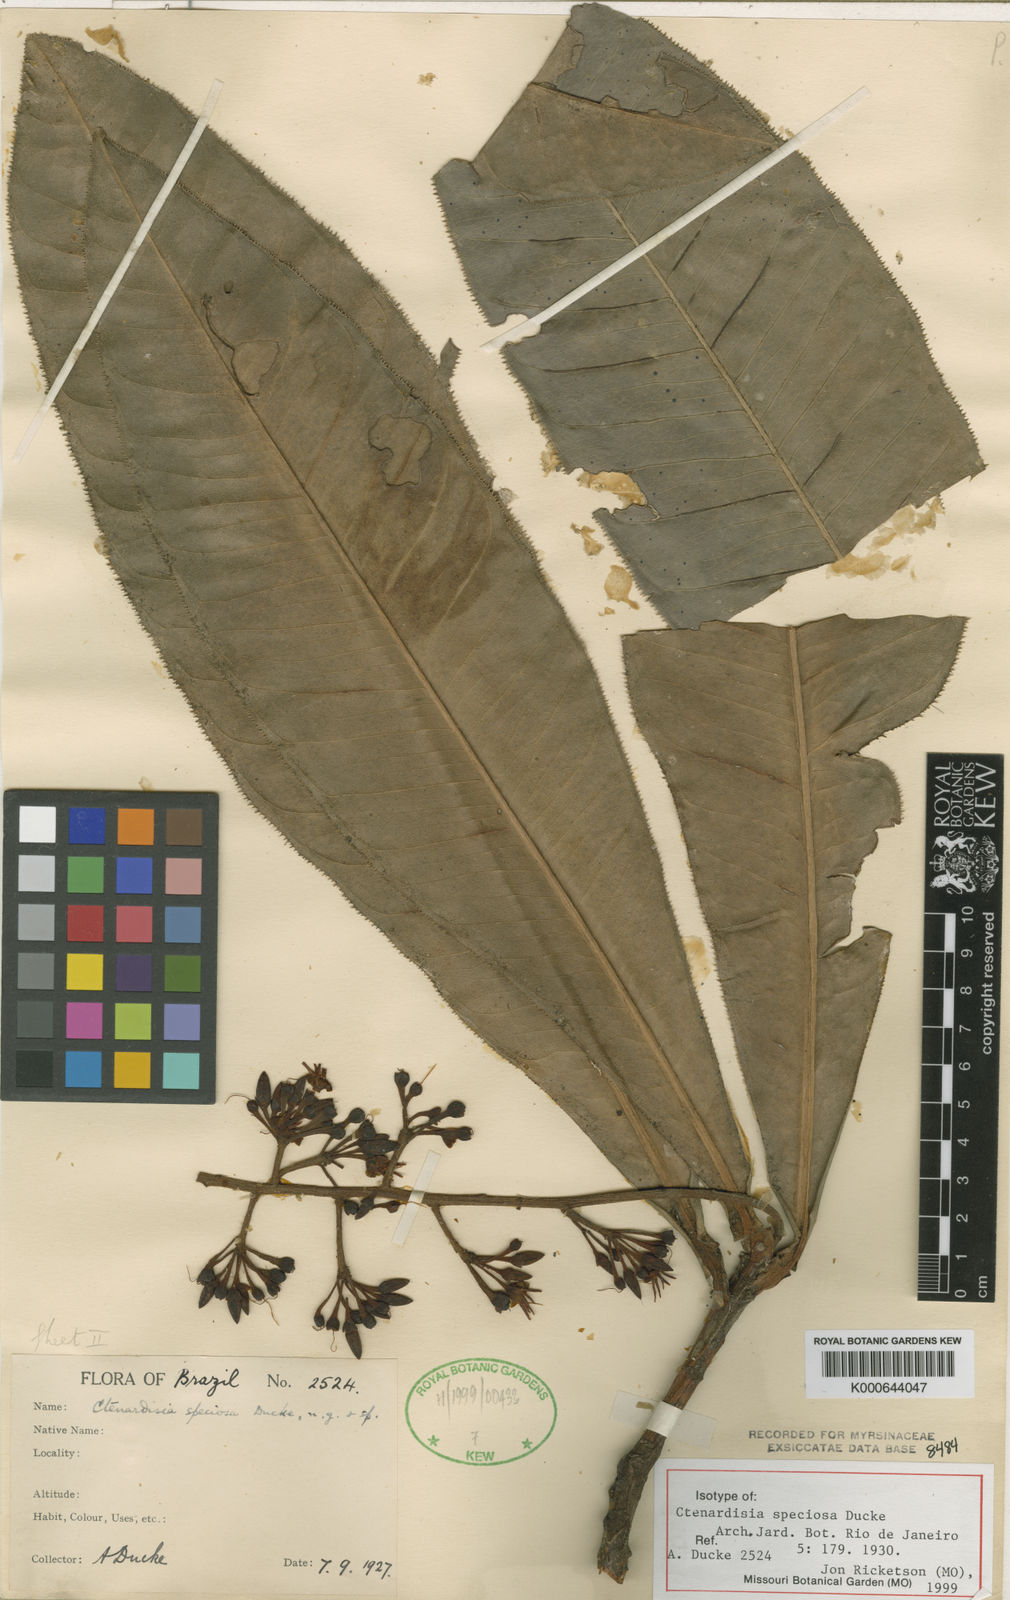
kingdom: Plantae
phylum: Tracheophyta
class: Magnoliopsida
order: Ericales
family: Primulaceae
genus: Ctenardisia
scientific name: Ctenardisia speciosa
